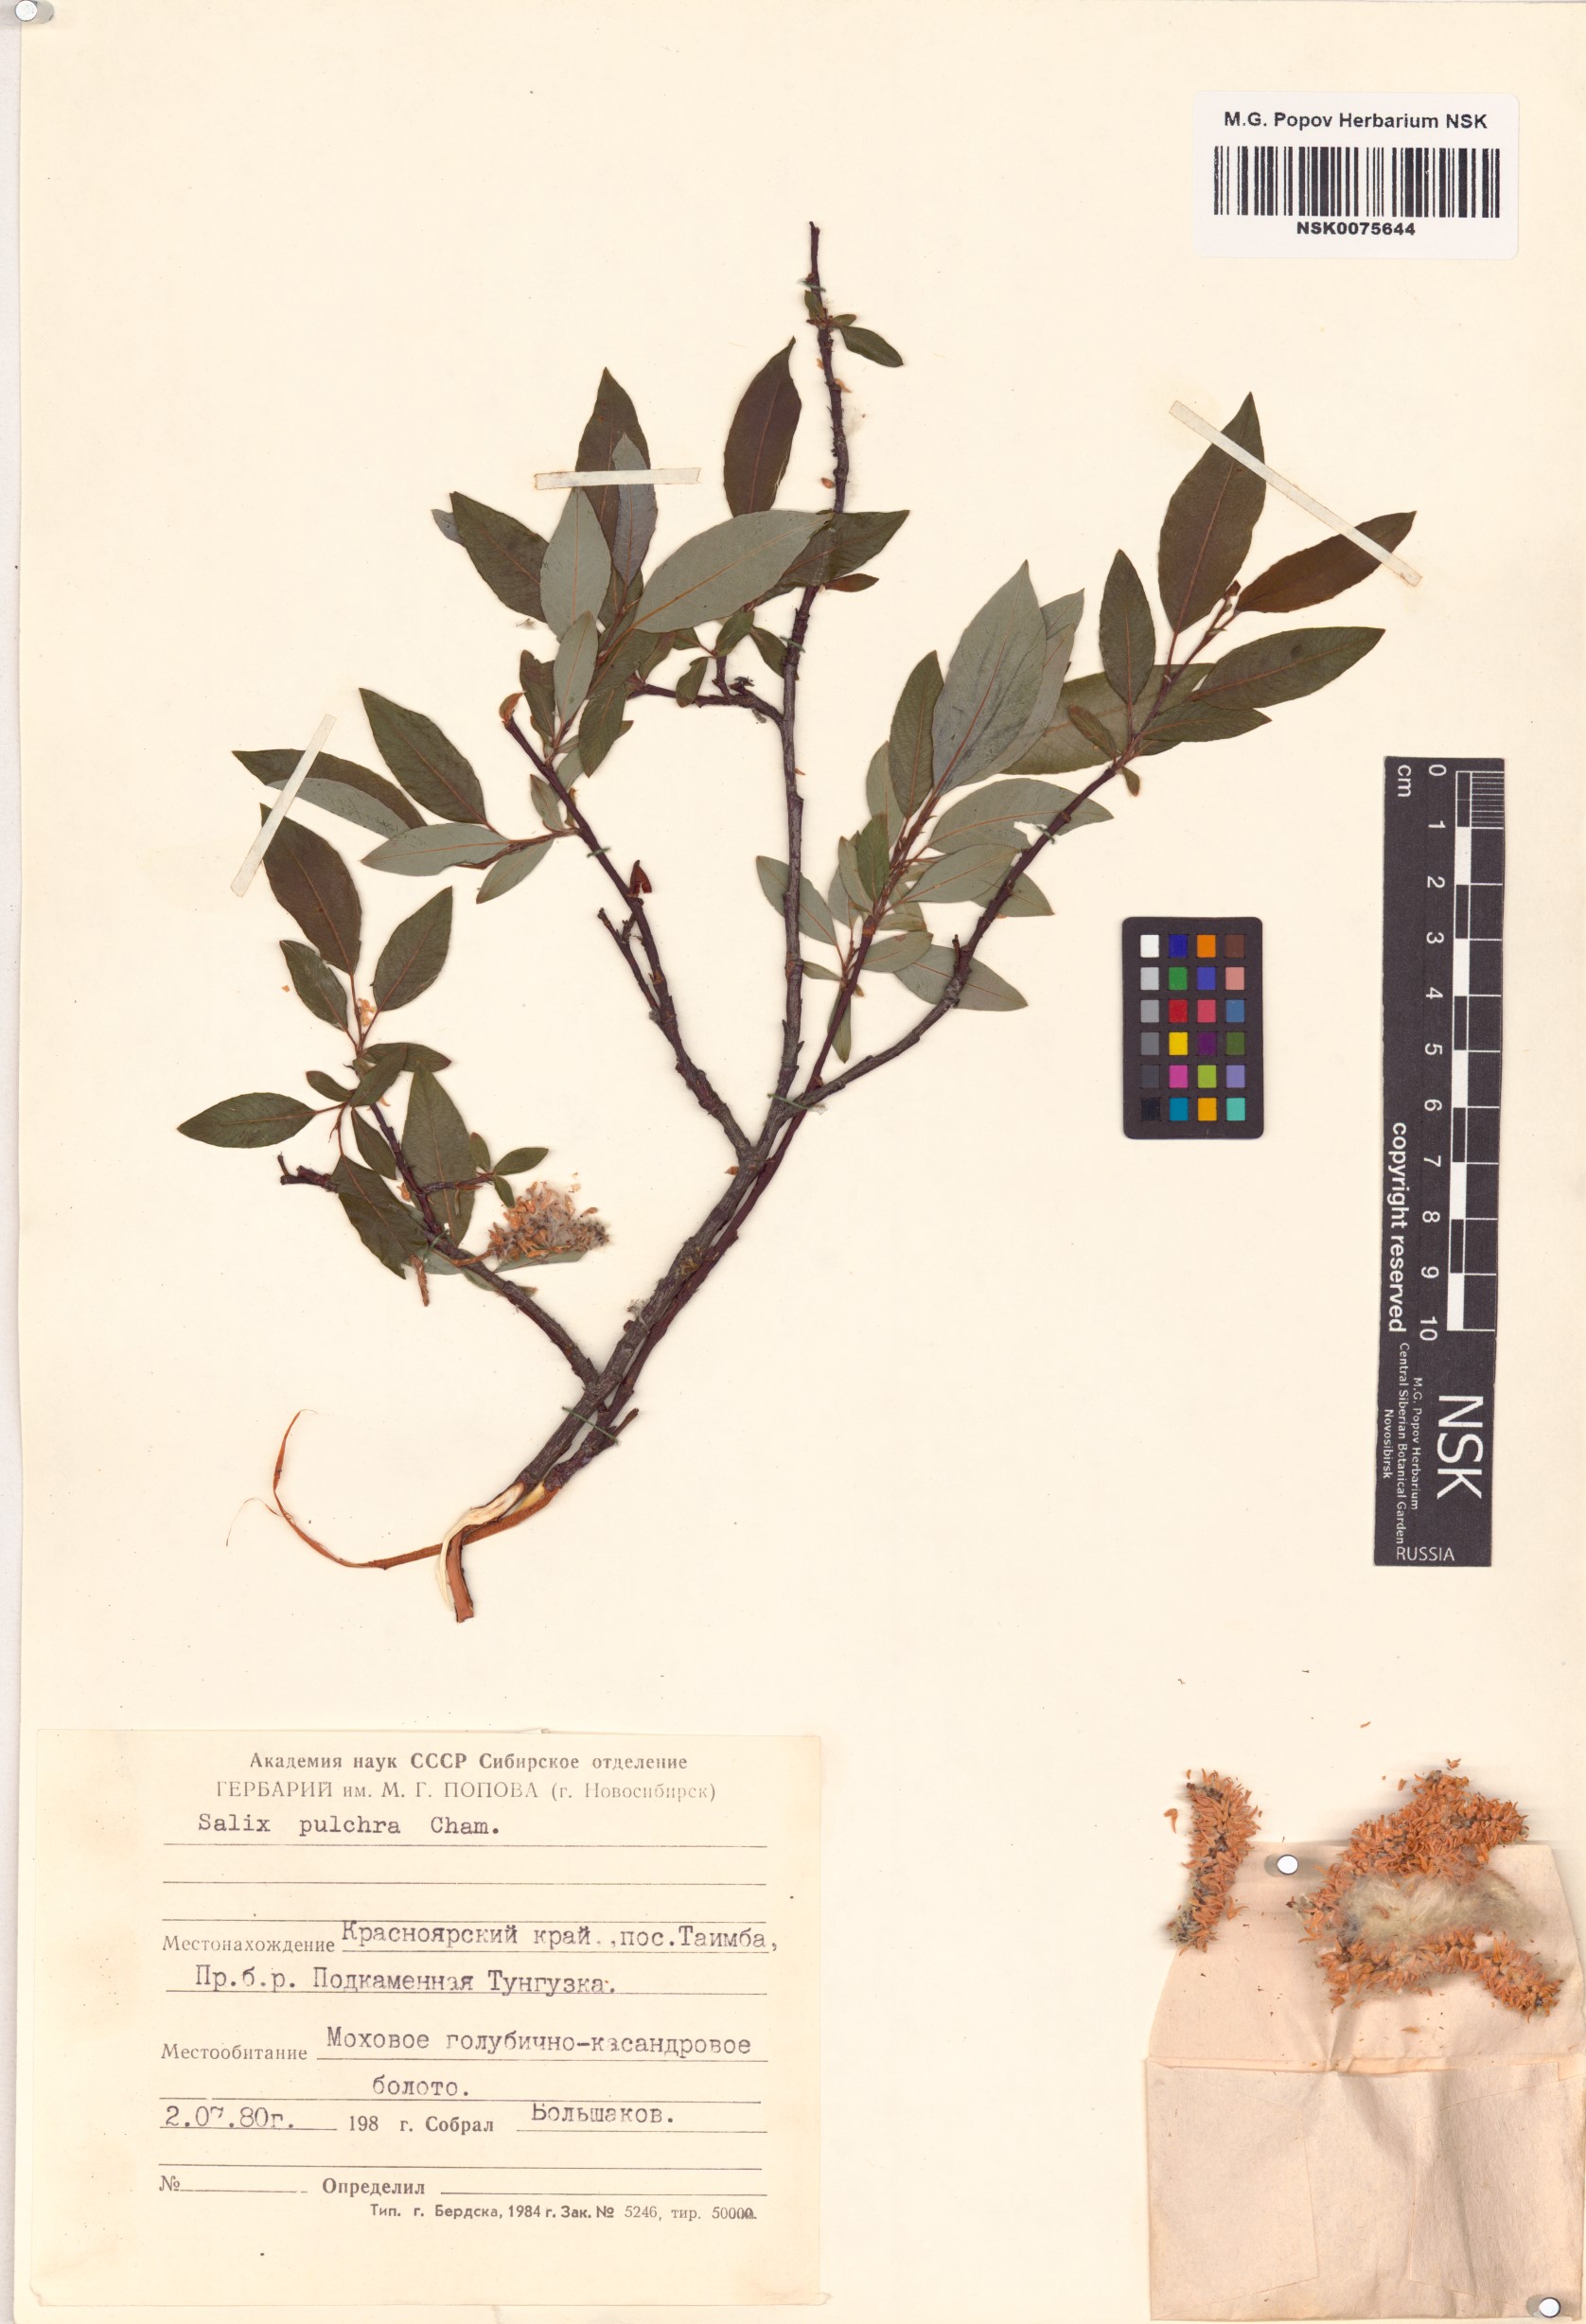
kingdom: Plantae
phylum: Tracheophyta
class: Magnoliopsida
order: Malpighiales
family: Salicaceae
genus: Salix
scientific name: Salix pulchra
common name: Diamond-leaved willow
